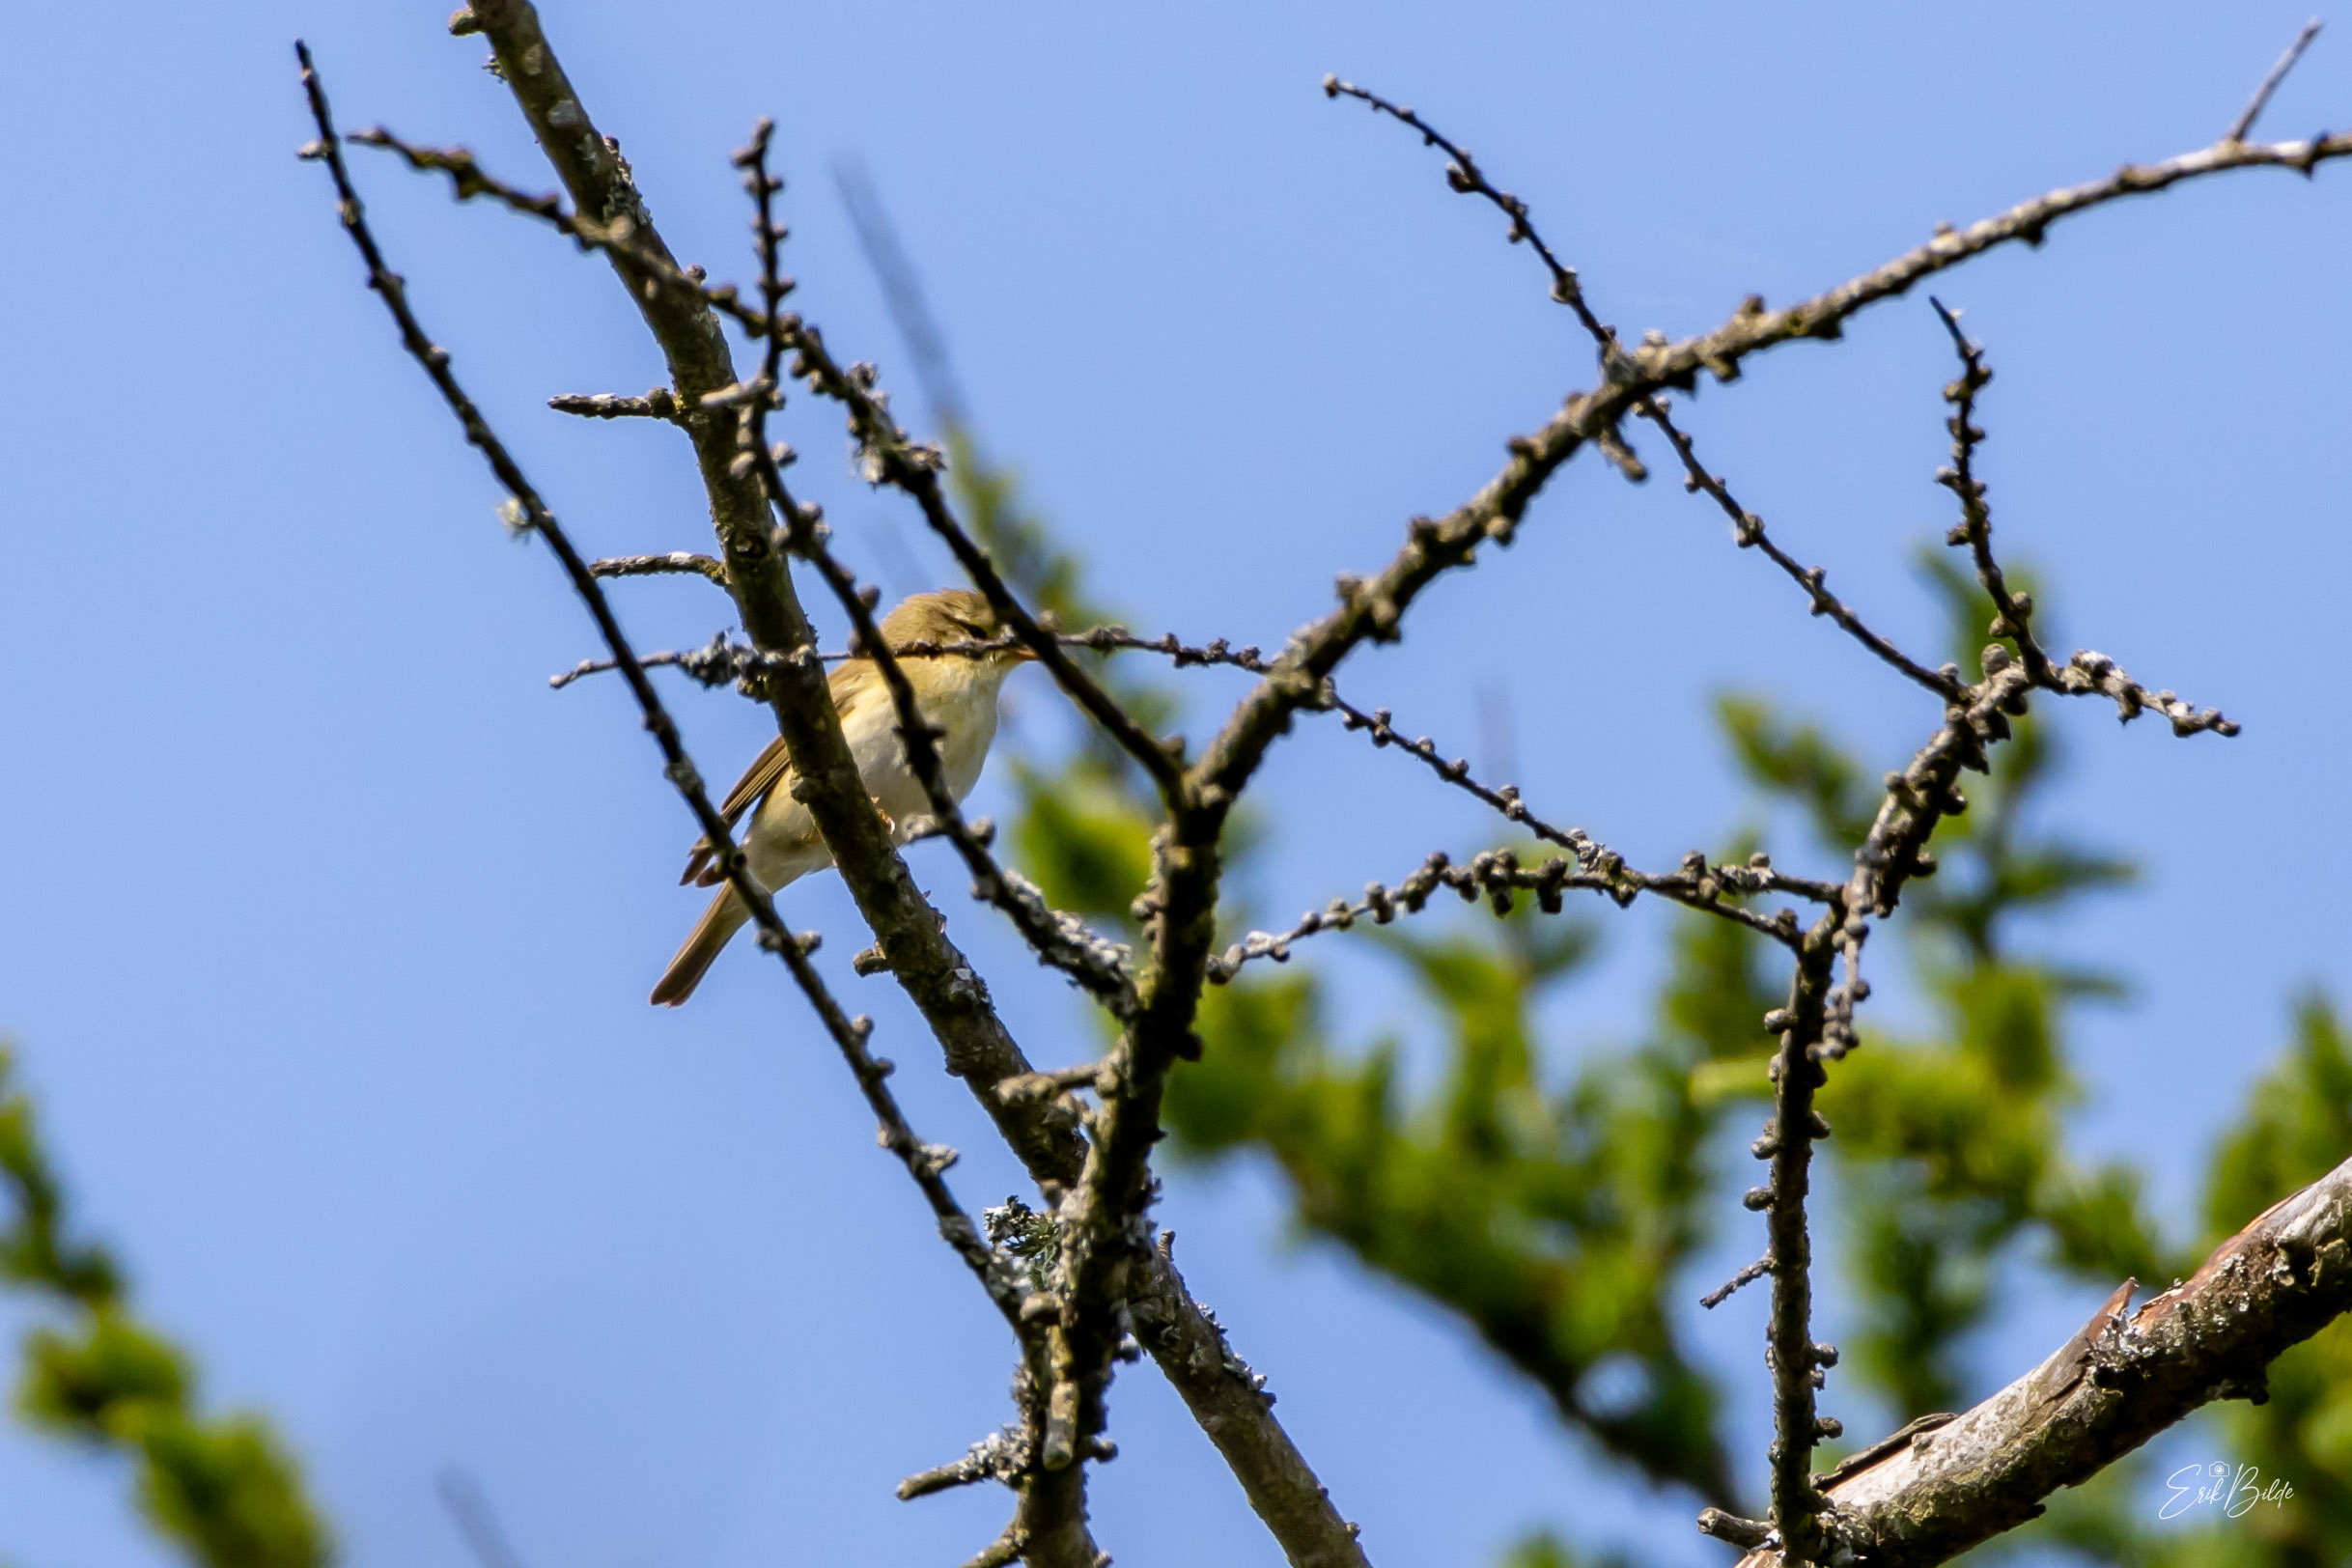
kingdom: Animalia
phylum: Chordata
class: Aves
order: Passeriformes
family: Phylloscopidae
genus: Phylloscopus
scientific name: Phylloscopus collybita
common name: Gransanger
